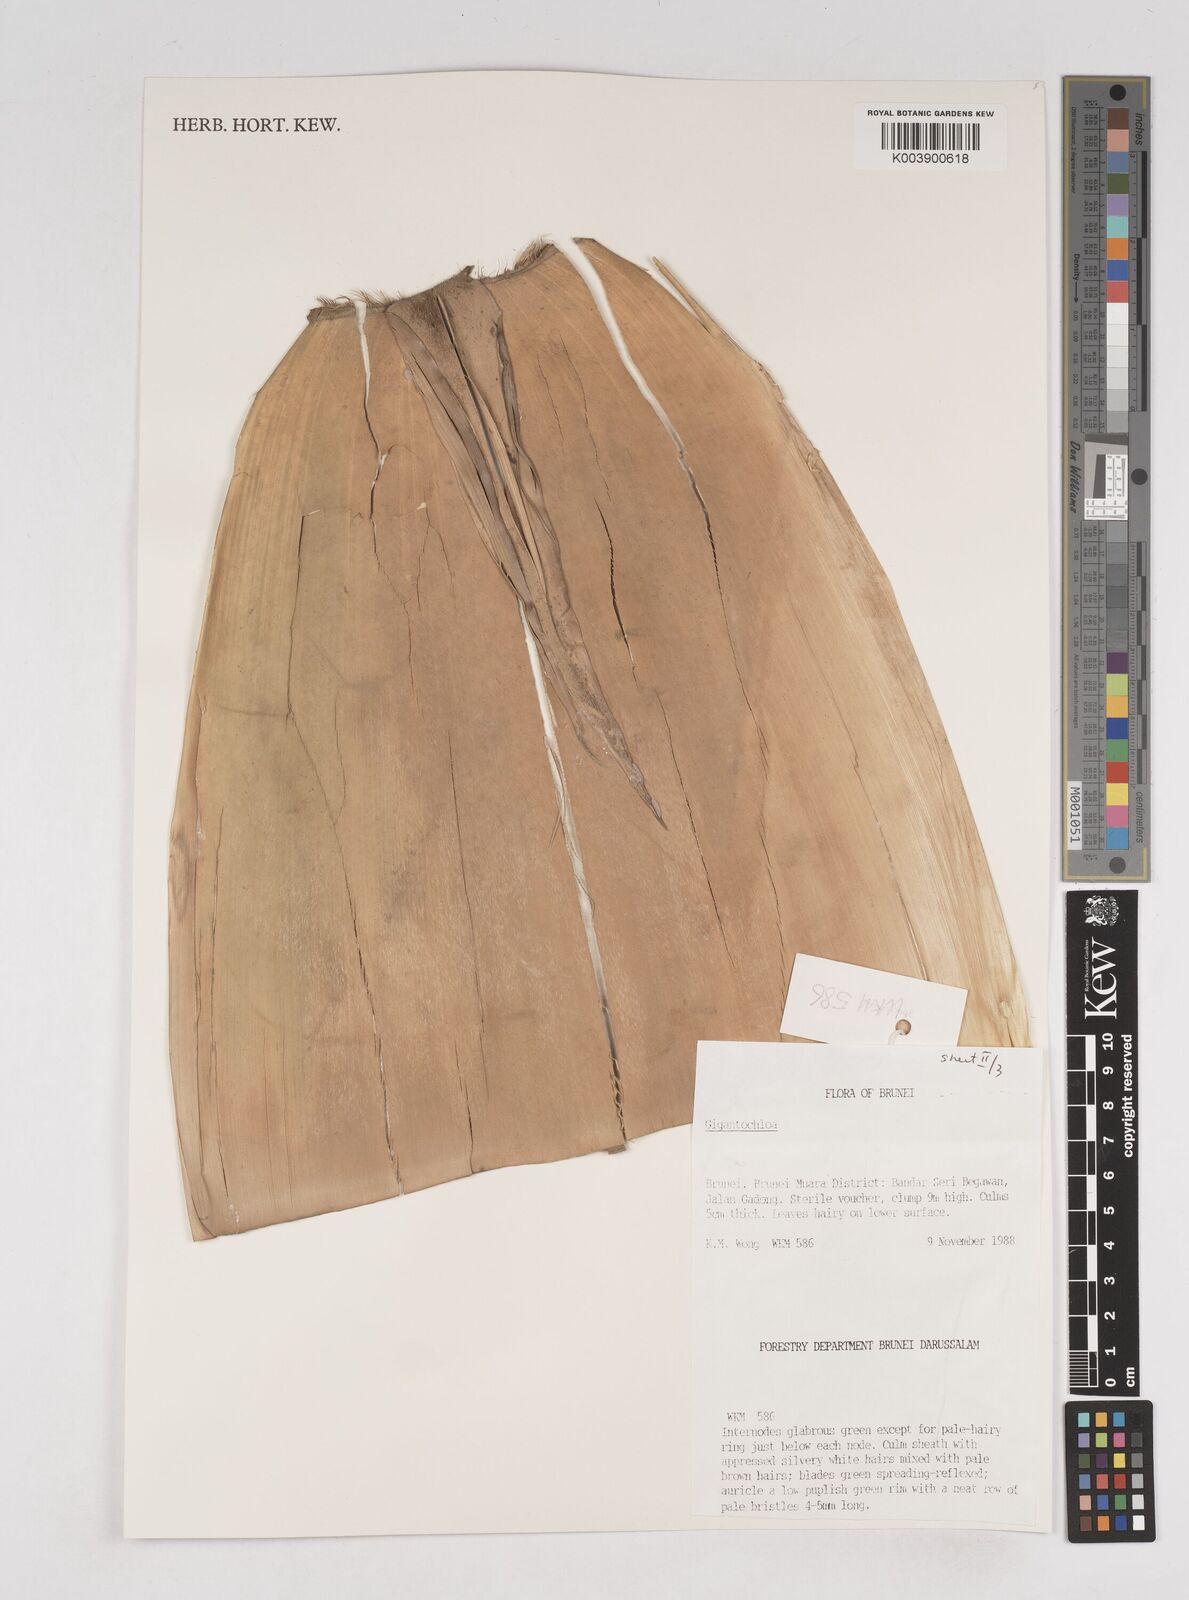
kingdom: Plantae
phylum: Tracheophyta
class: Liliopsida
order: Poales
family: Poaceae
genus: Gigantochloa
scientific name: Gigantochloa
